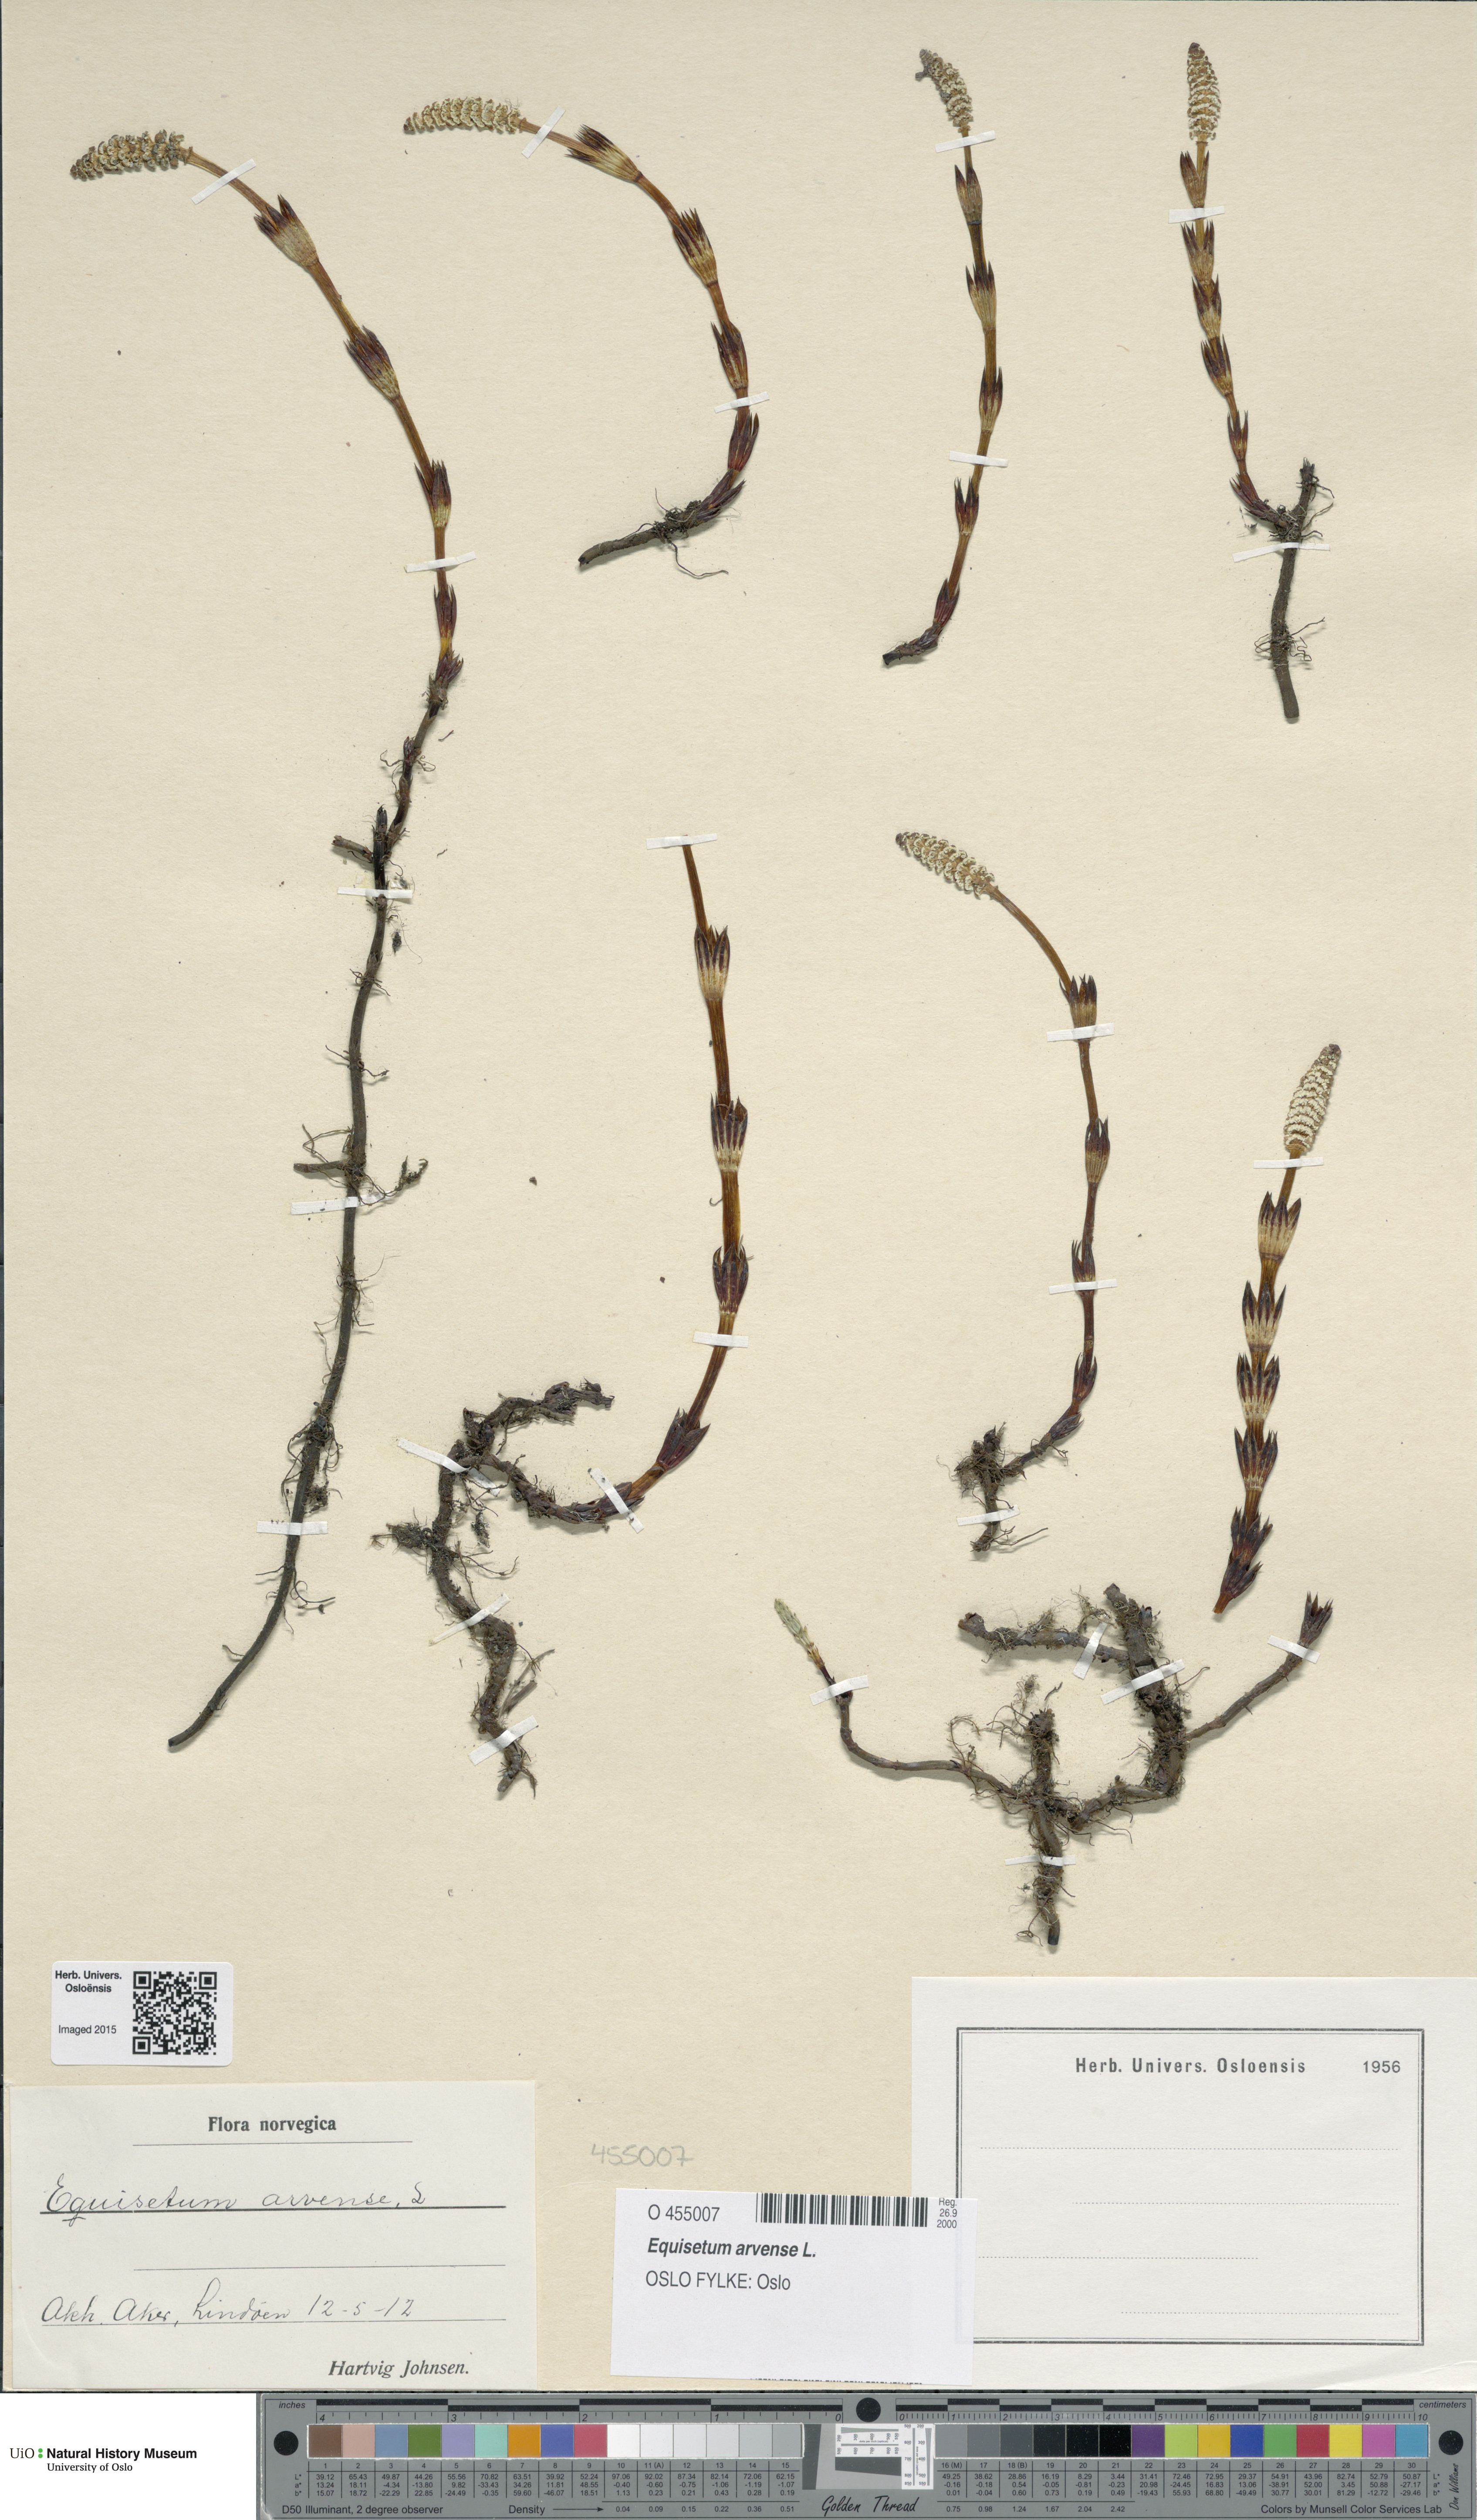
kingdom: Plantae
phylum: Tracheophyta
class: Polypodiopsida
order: Equisetales
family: Equisetaceae
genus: Equisetum
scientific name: Equisetum arvense
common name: Field horsetail
